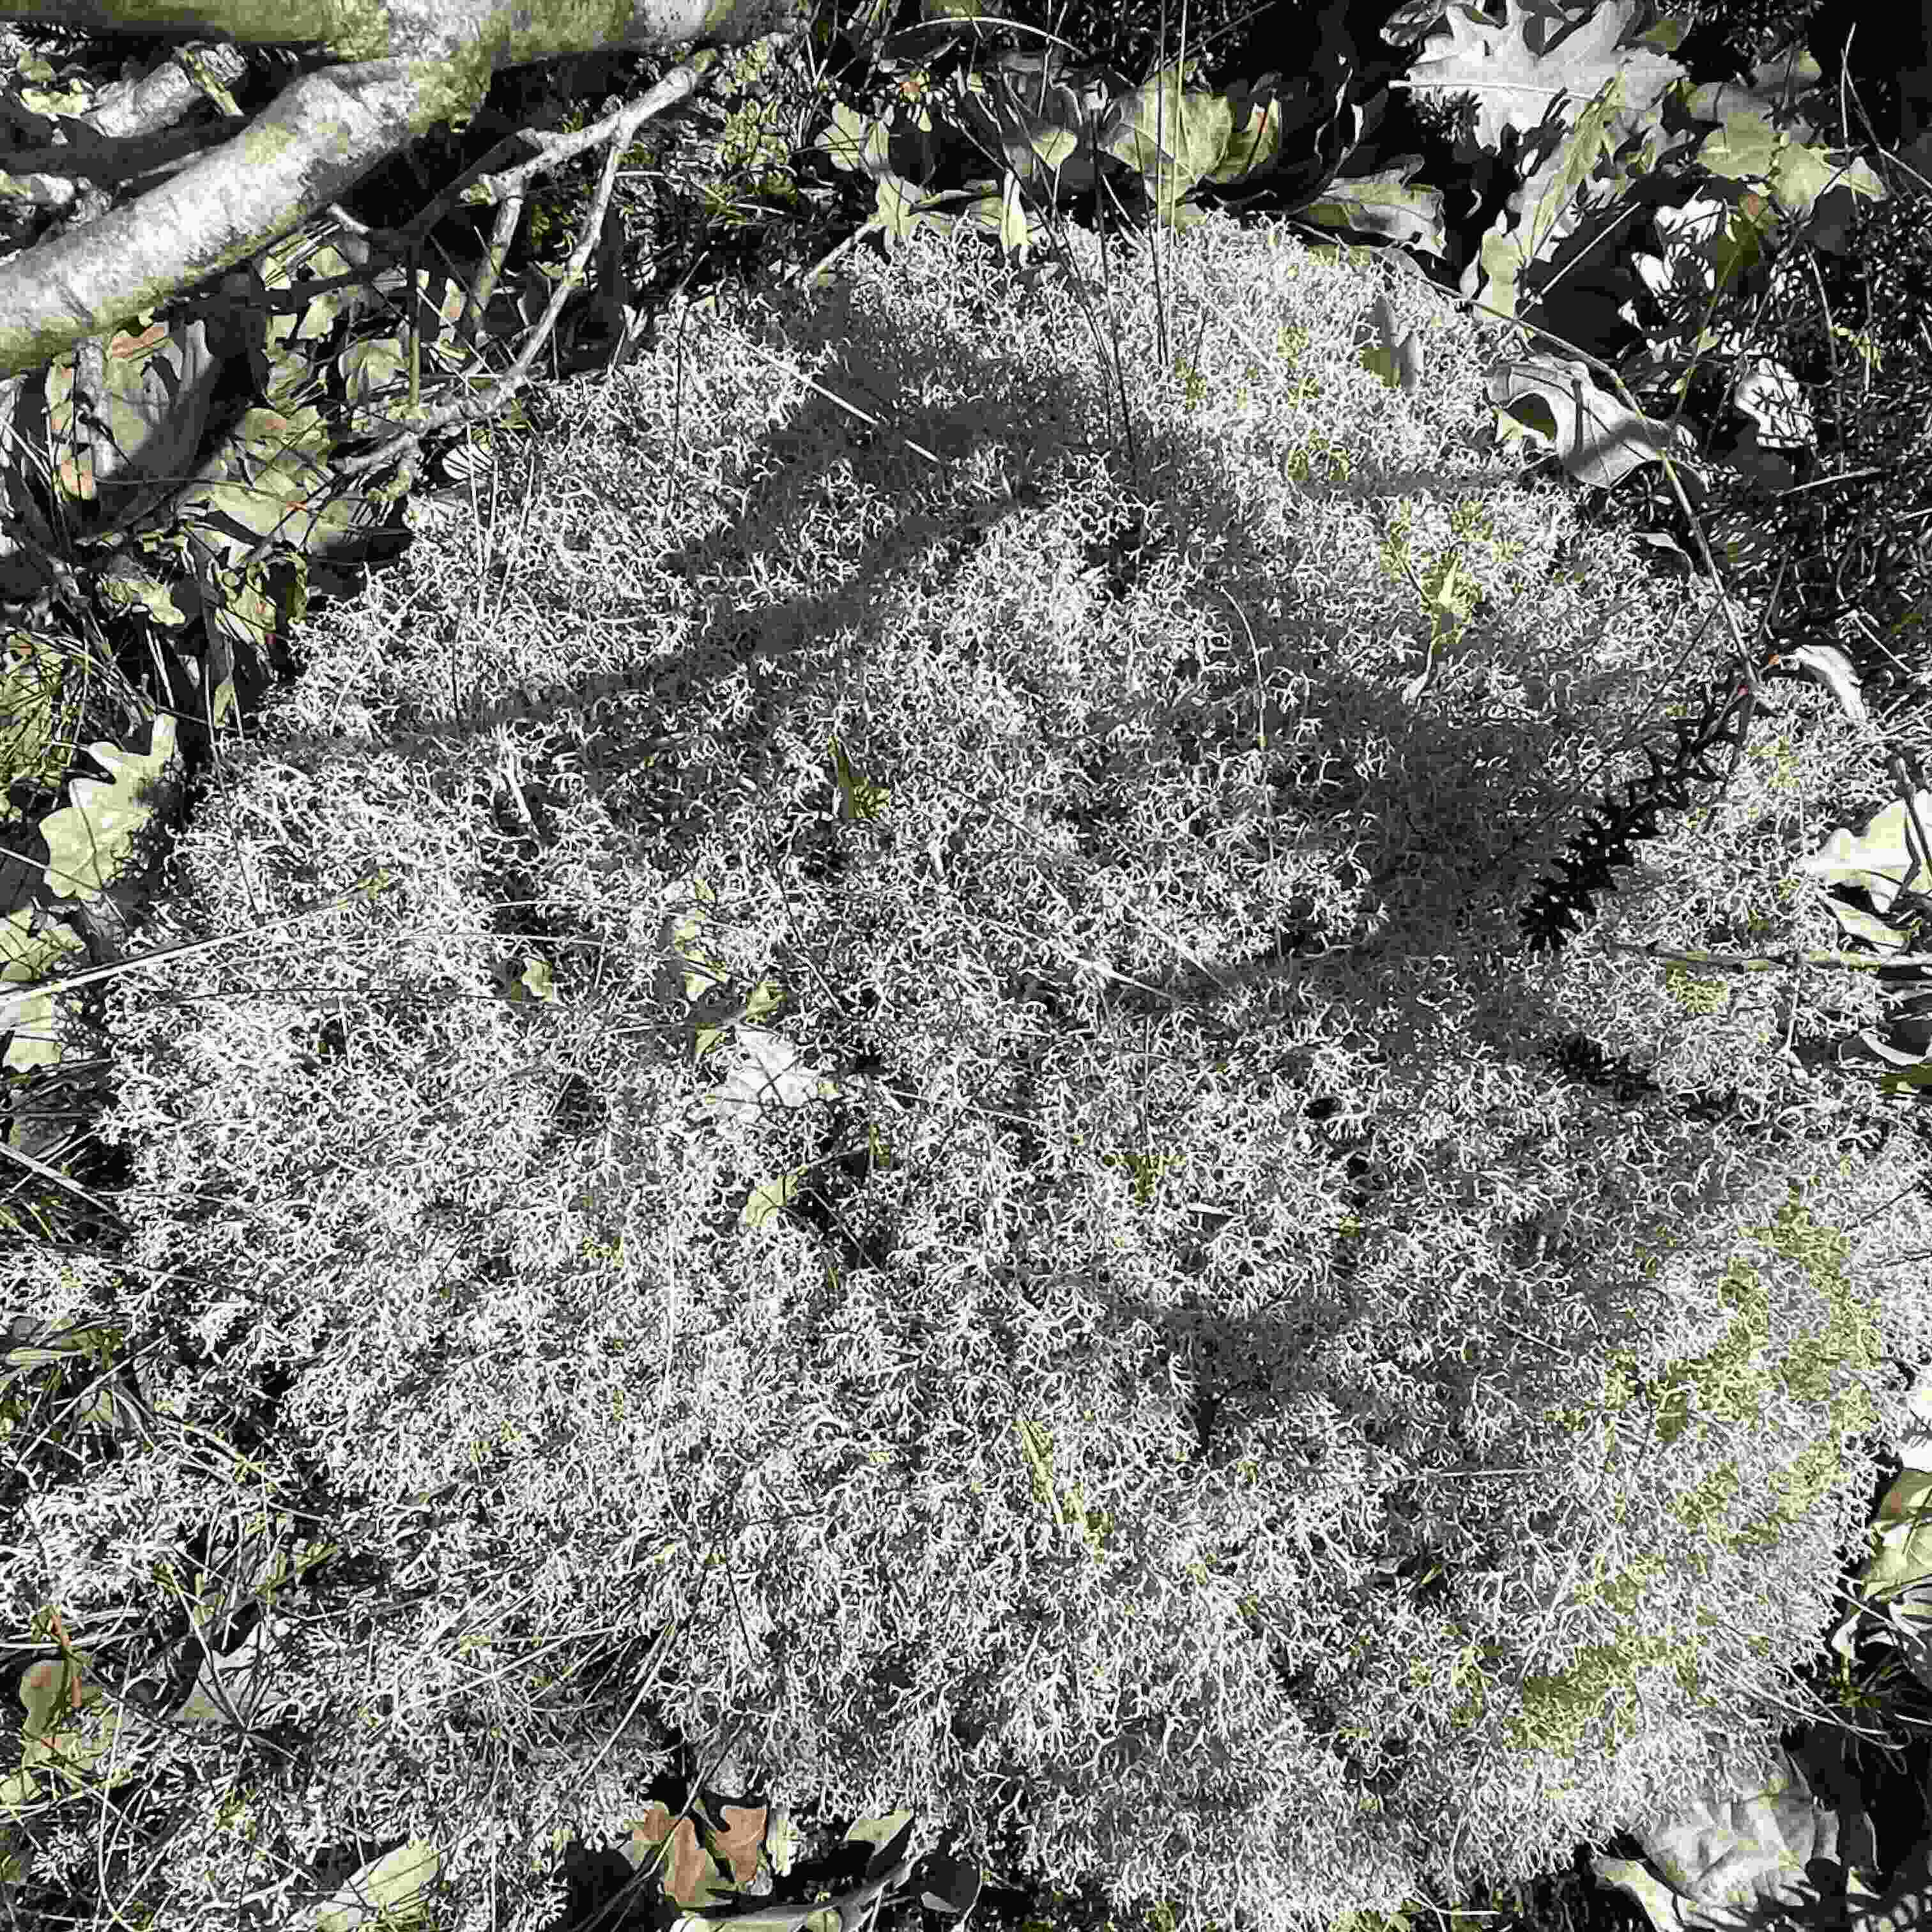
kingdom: Fungi
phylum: Ascomycota
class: Lecanoromycetes
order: Lecanorales
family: Cladoniaceae
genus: Cladonia
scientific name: Cladonia portentosa
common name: hede-rensdyrlav
